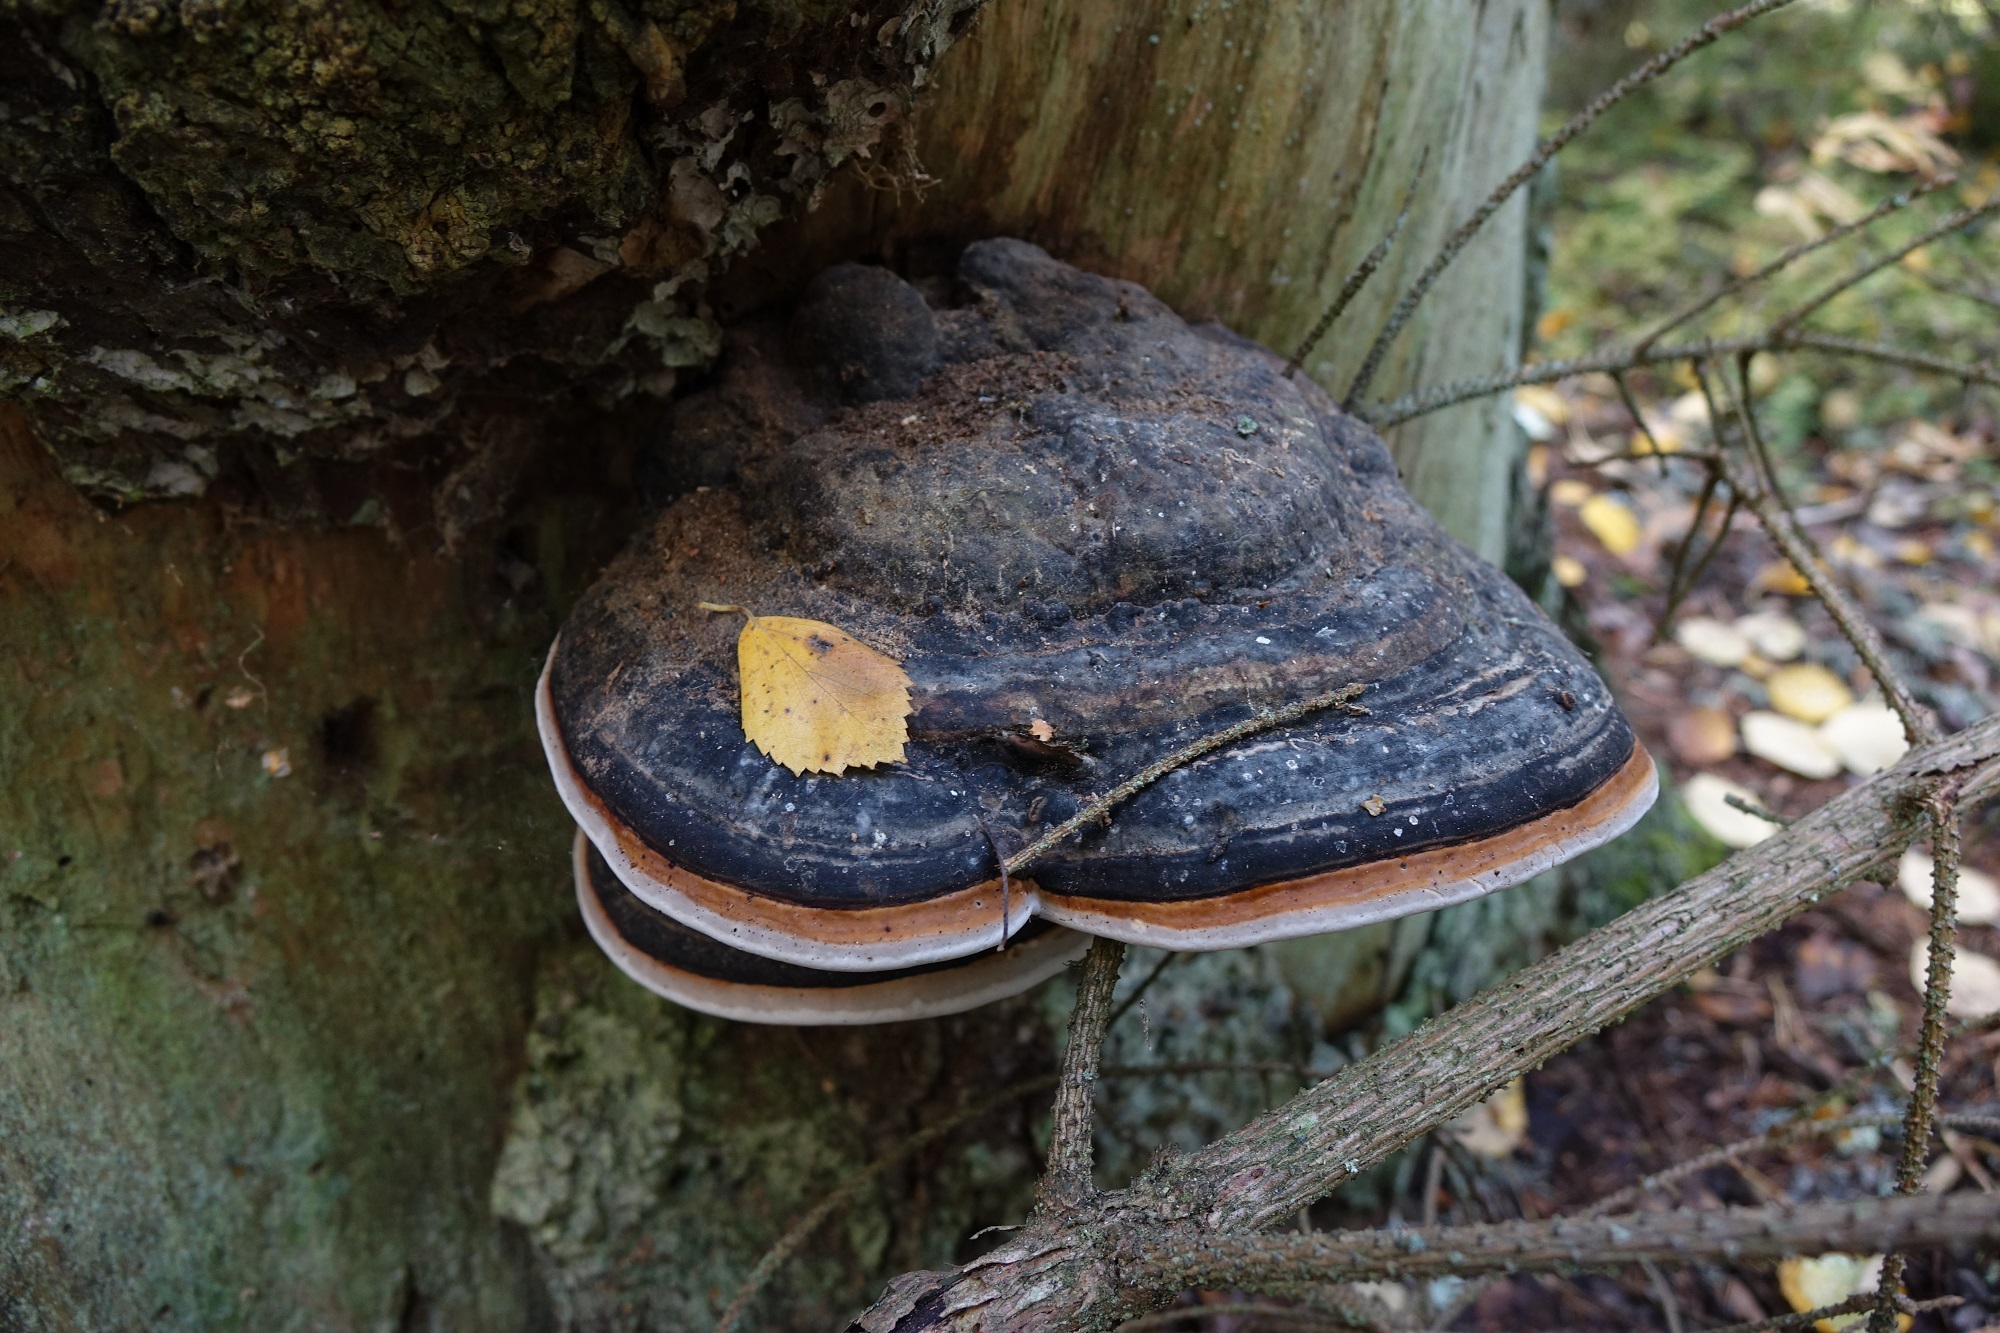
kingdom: Fungi
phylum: Basidiomycota
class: Agaricomycetes
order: Polyporales
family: Fomitopsidaceae
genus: Fomitopsis
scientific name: Fomitopsis pinicola
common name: Red-belted bracket
